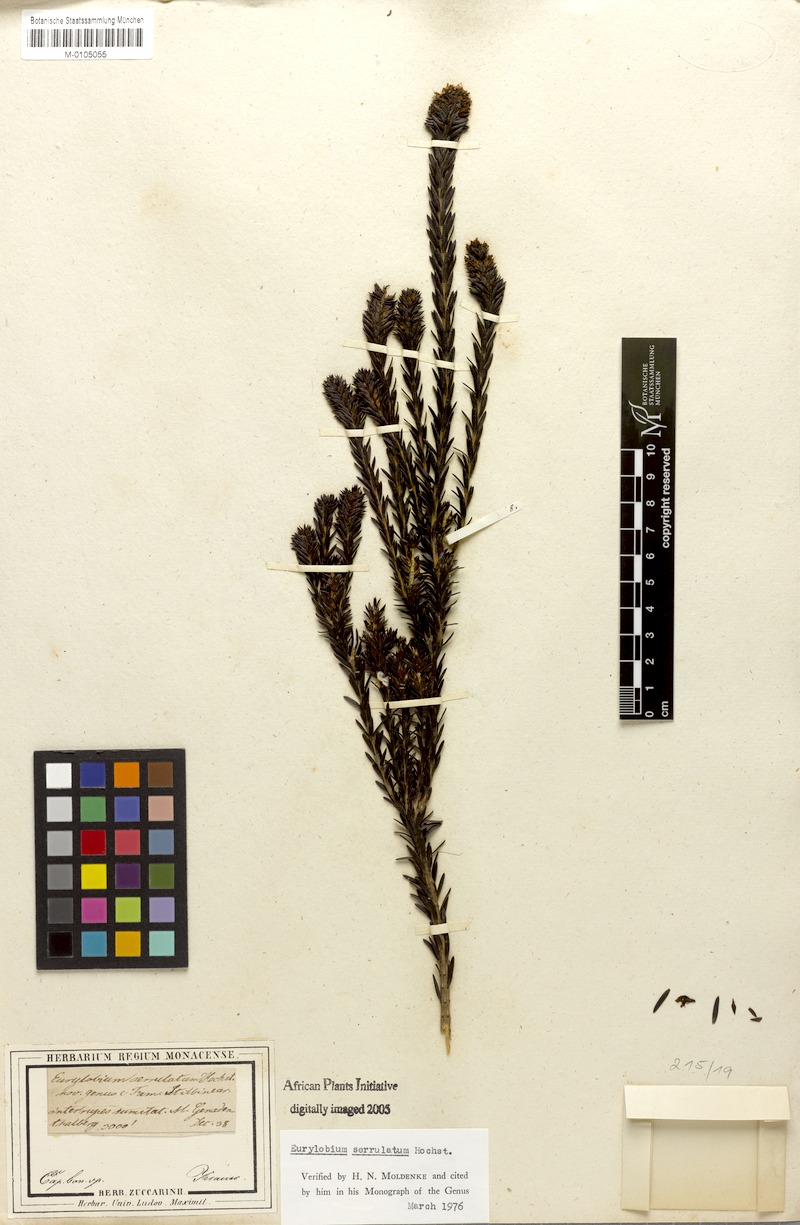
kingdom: Plantae
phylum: Tracheophyta
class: Magnoliopsida
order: Lamiales
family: Stilbaceae
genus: Stilbe
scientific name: Stilbe serrulata
